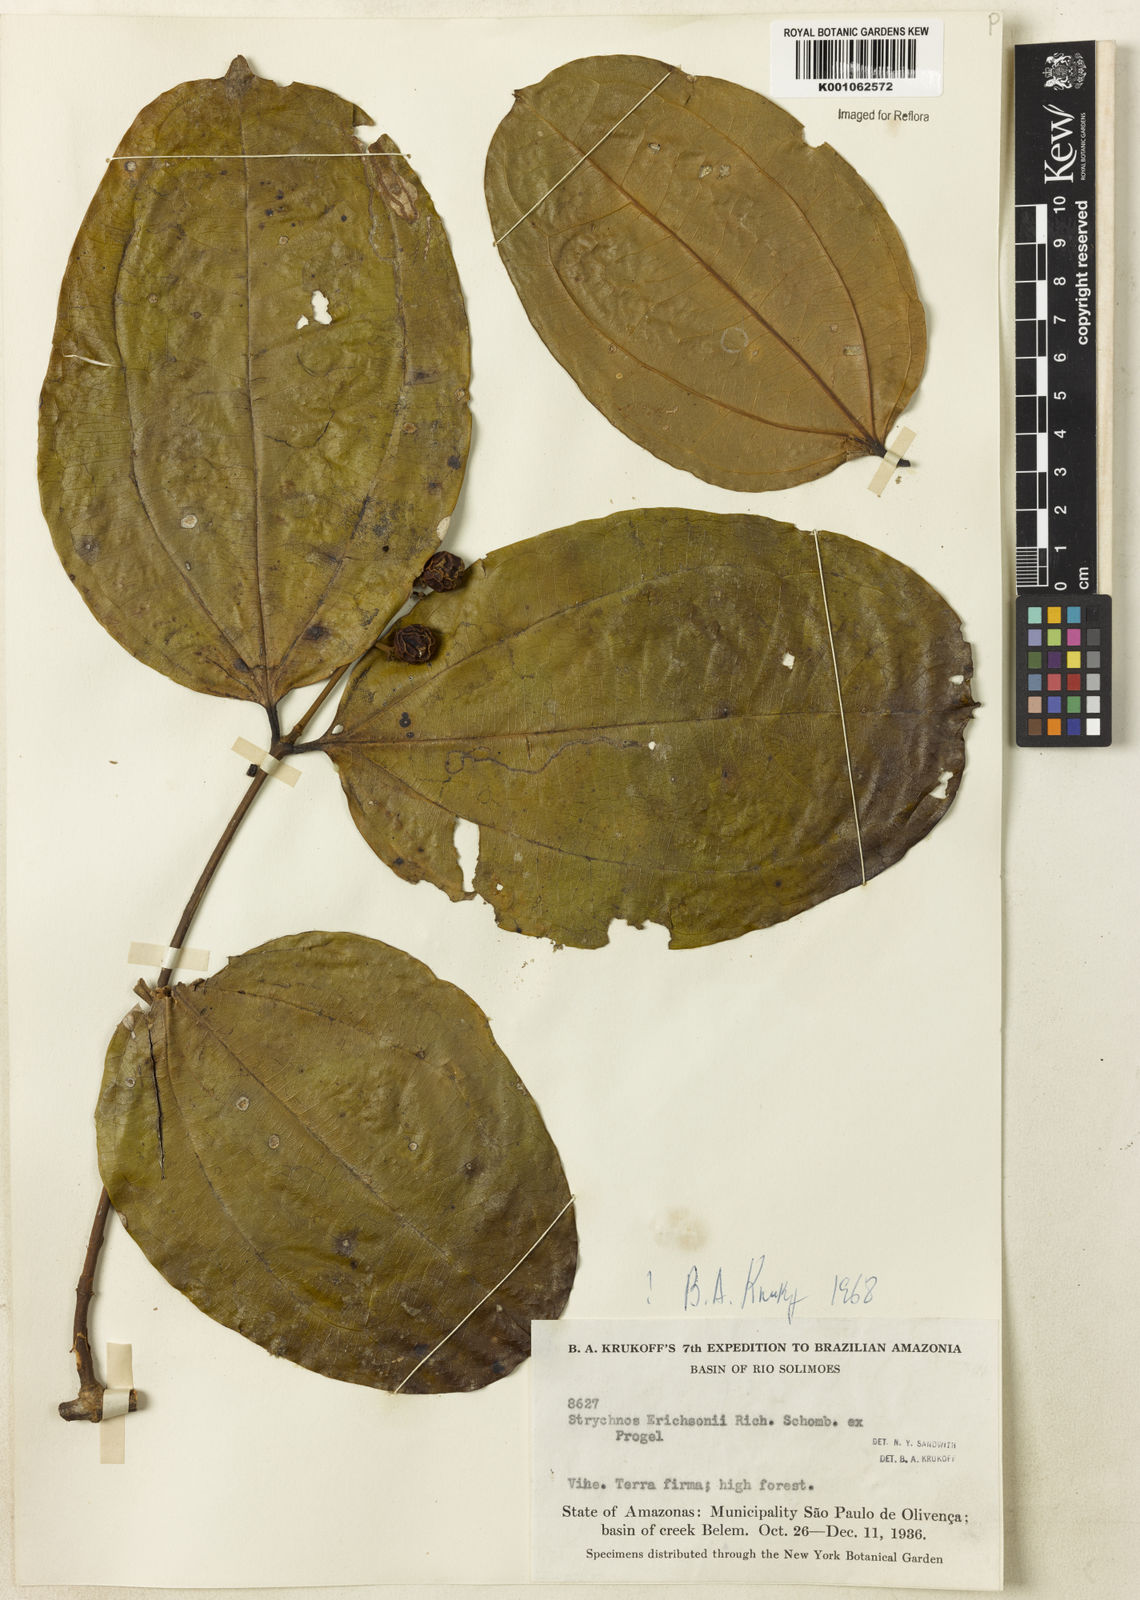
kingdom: Plantae
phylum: Tracheophyta
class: Magnoliopsida
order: Gentianales
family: Loganiaceae
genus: Strychnos
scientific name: Strychnos erichsonii
